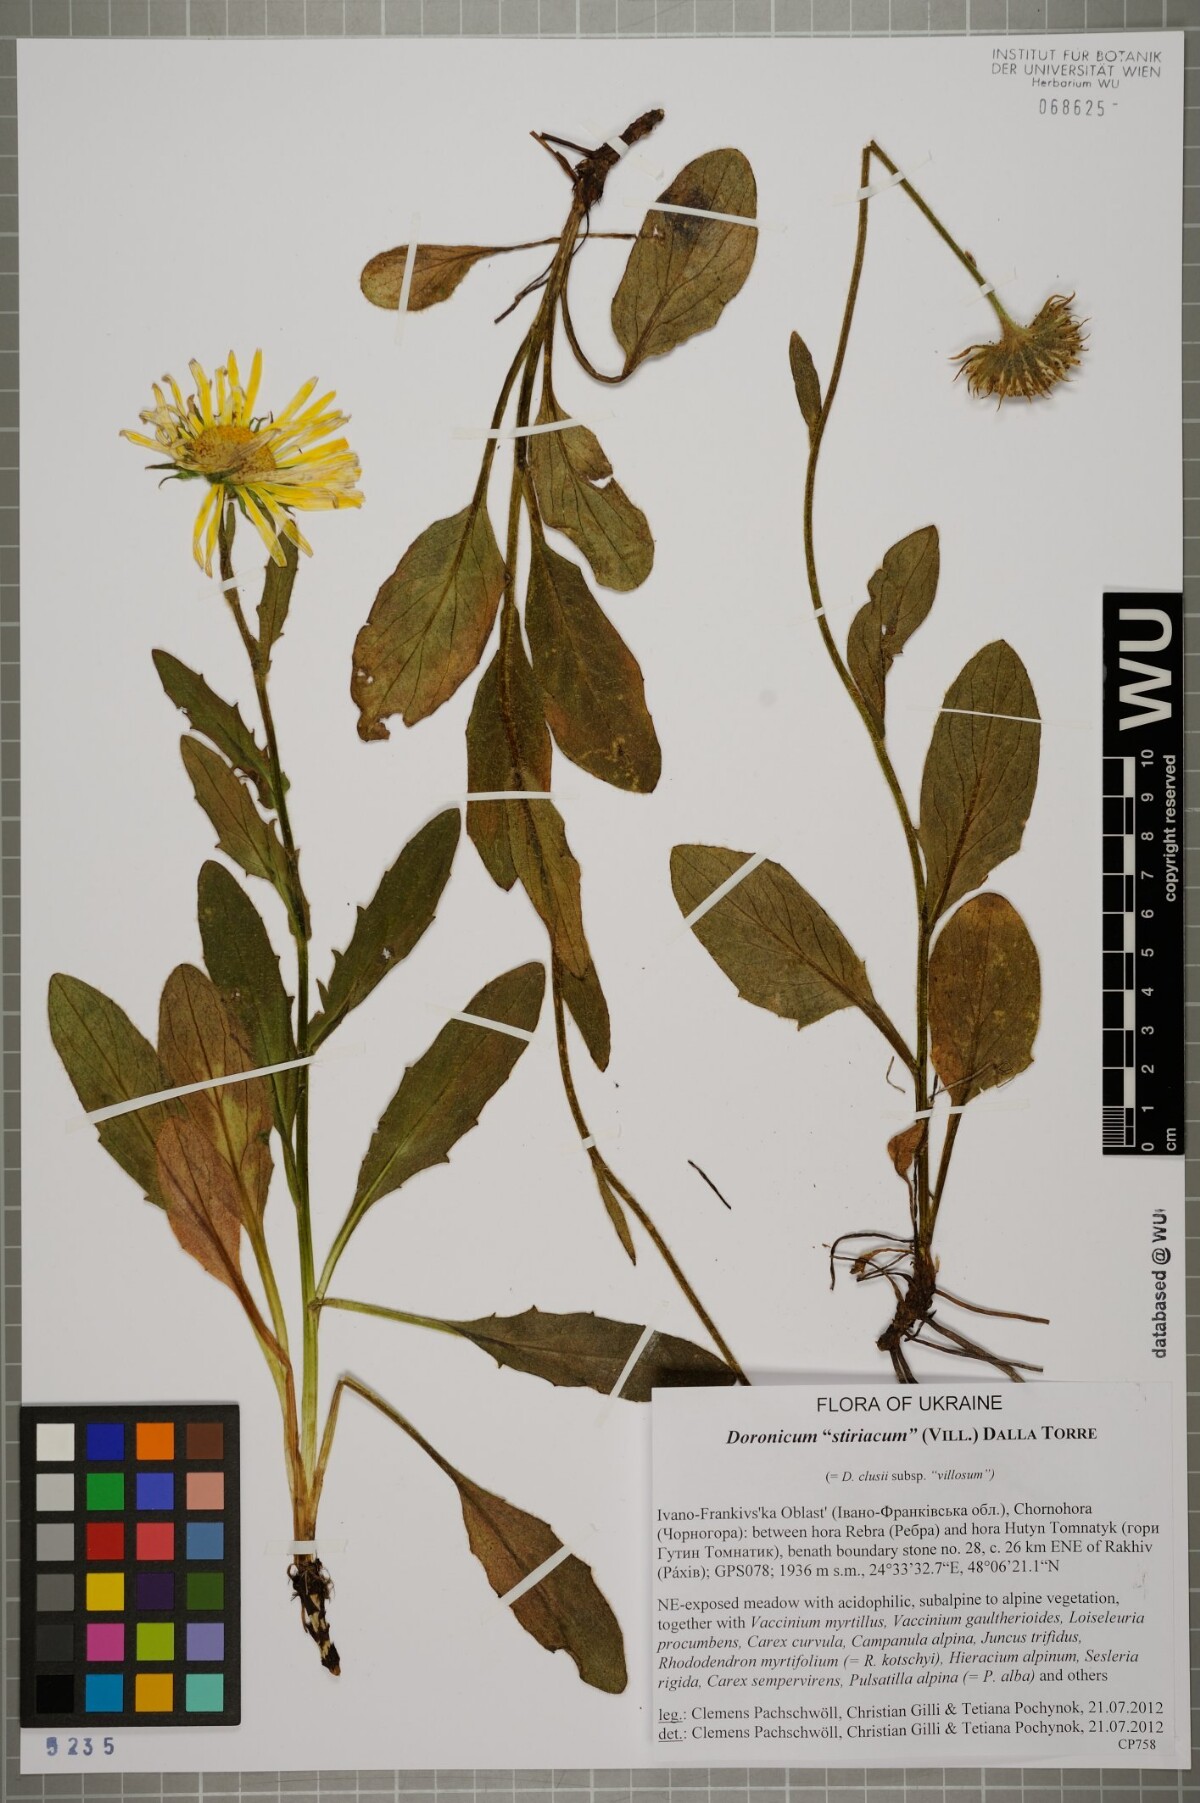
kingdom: Plantae
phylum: Tracheophyta
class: Magnoliopsida
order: Asterales
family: Asteraceae
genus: Doronicum
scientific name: Doronicum clusii
